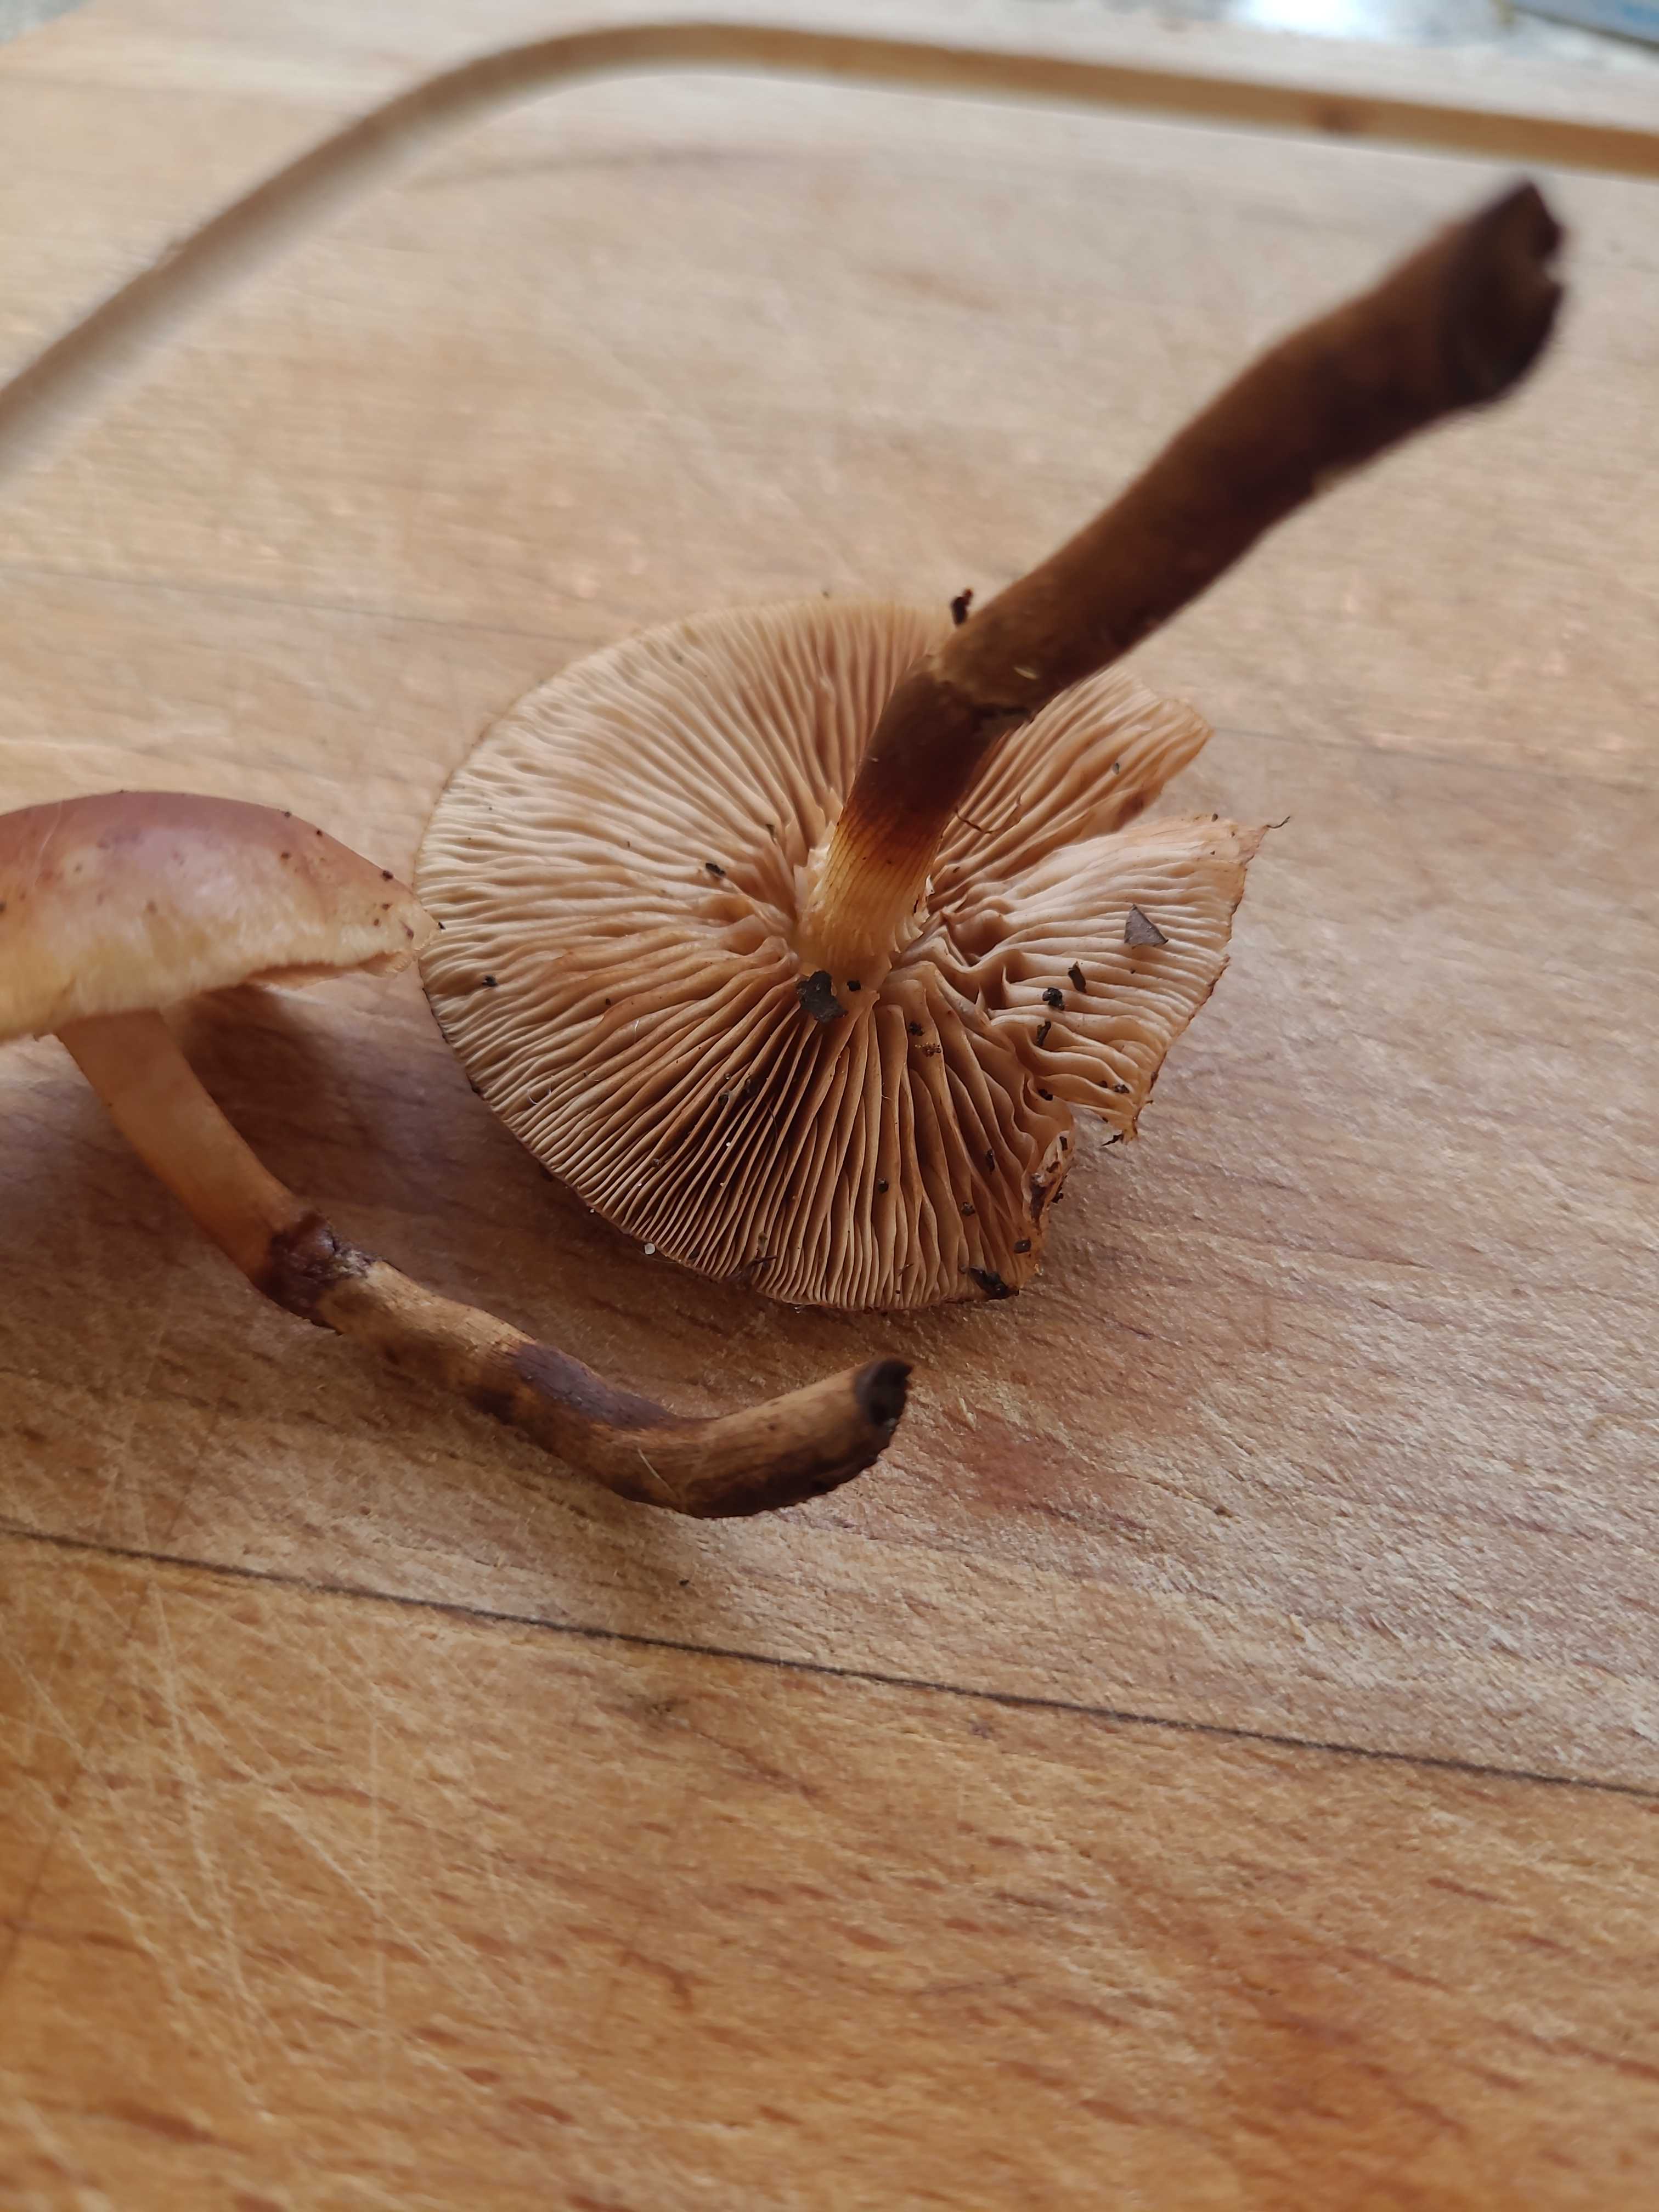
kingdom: Fungi
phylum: Basidiomycota
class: Agaricomycetes
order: Agaricales
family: Strophariaceae
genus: Kuehneromyces
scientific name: Kuehneromyces mutabilis
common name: foranderlig skælhat
